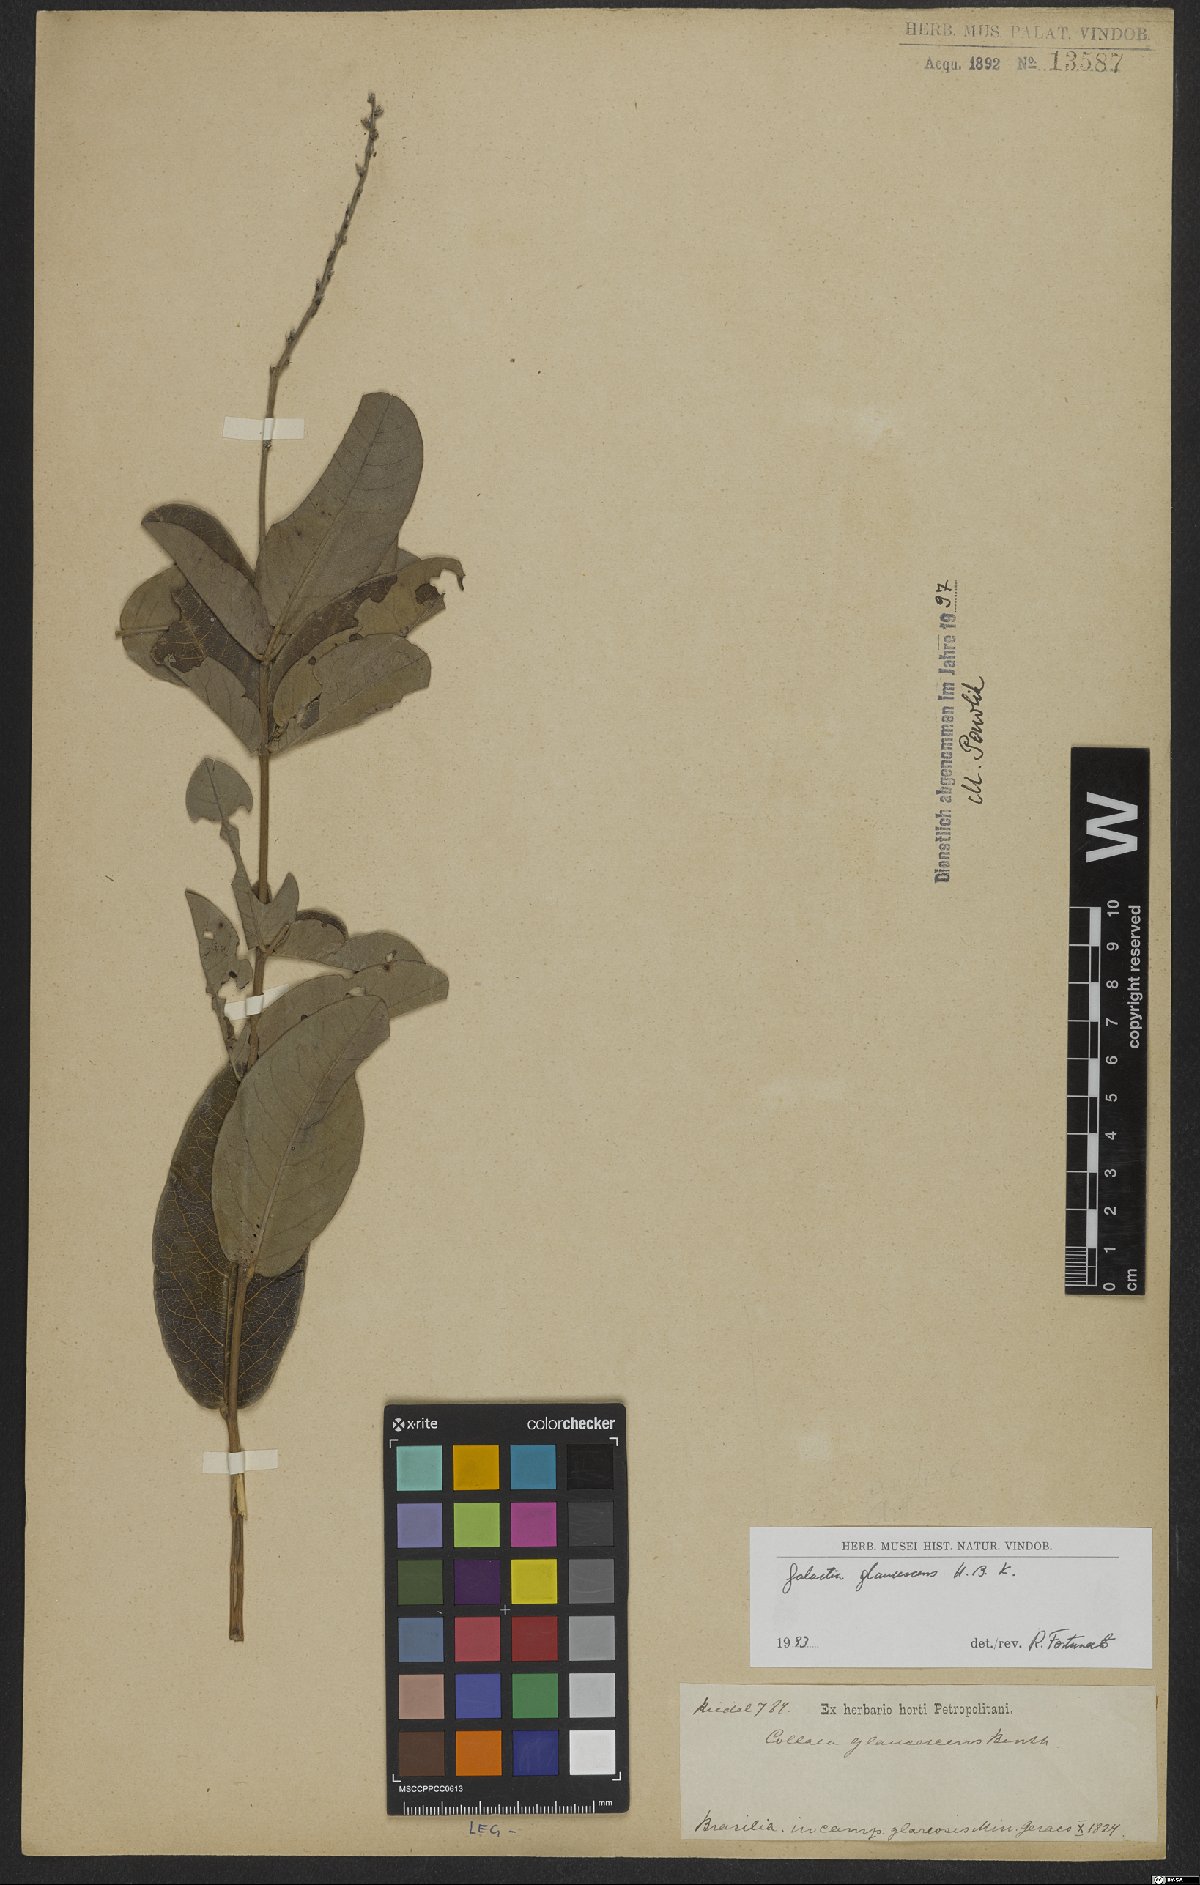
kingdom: Plantae
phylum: Tracheophyta
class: Magnoliopsida
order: Fabales
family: Fabaceae
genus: Galactia
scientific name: Galactia glaucescens
